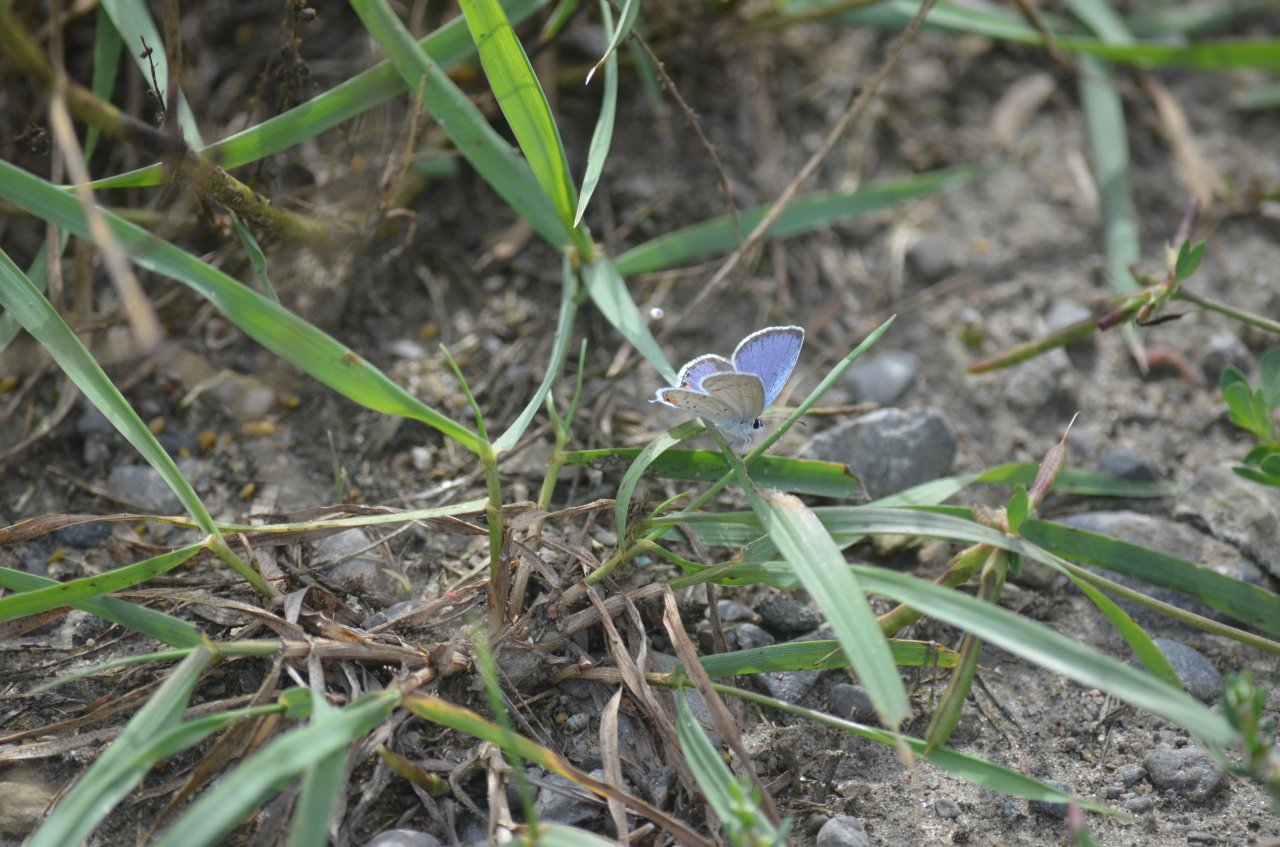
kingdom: Animalia
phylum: Arthropoda
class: Insecta
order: Lepidoptera
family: Lycaenidae
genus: Elkalyce
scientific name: Elkalyce comyntas
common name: Eastern Tailed-Blue
